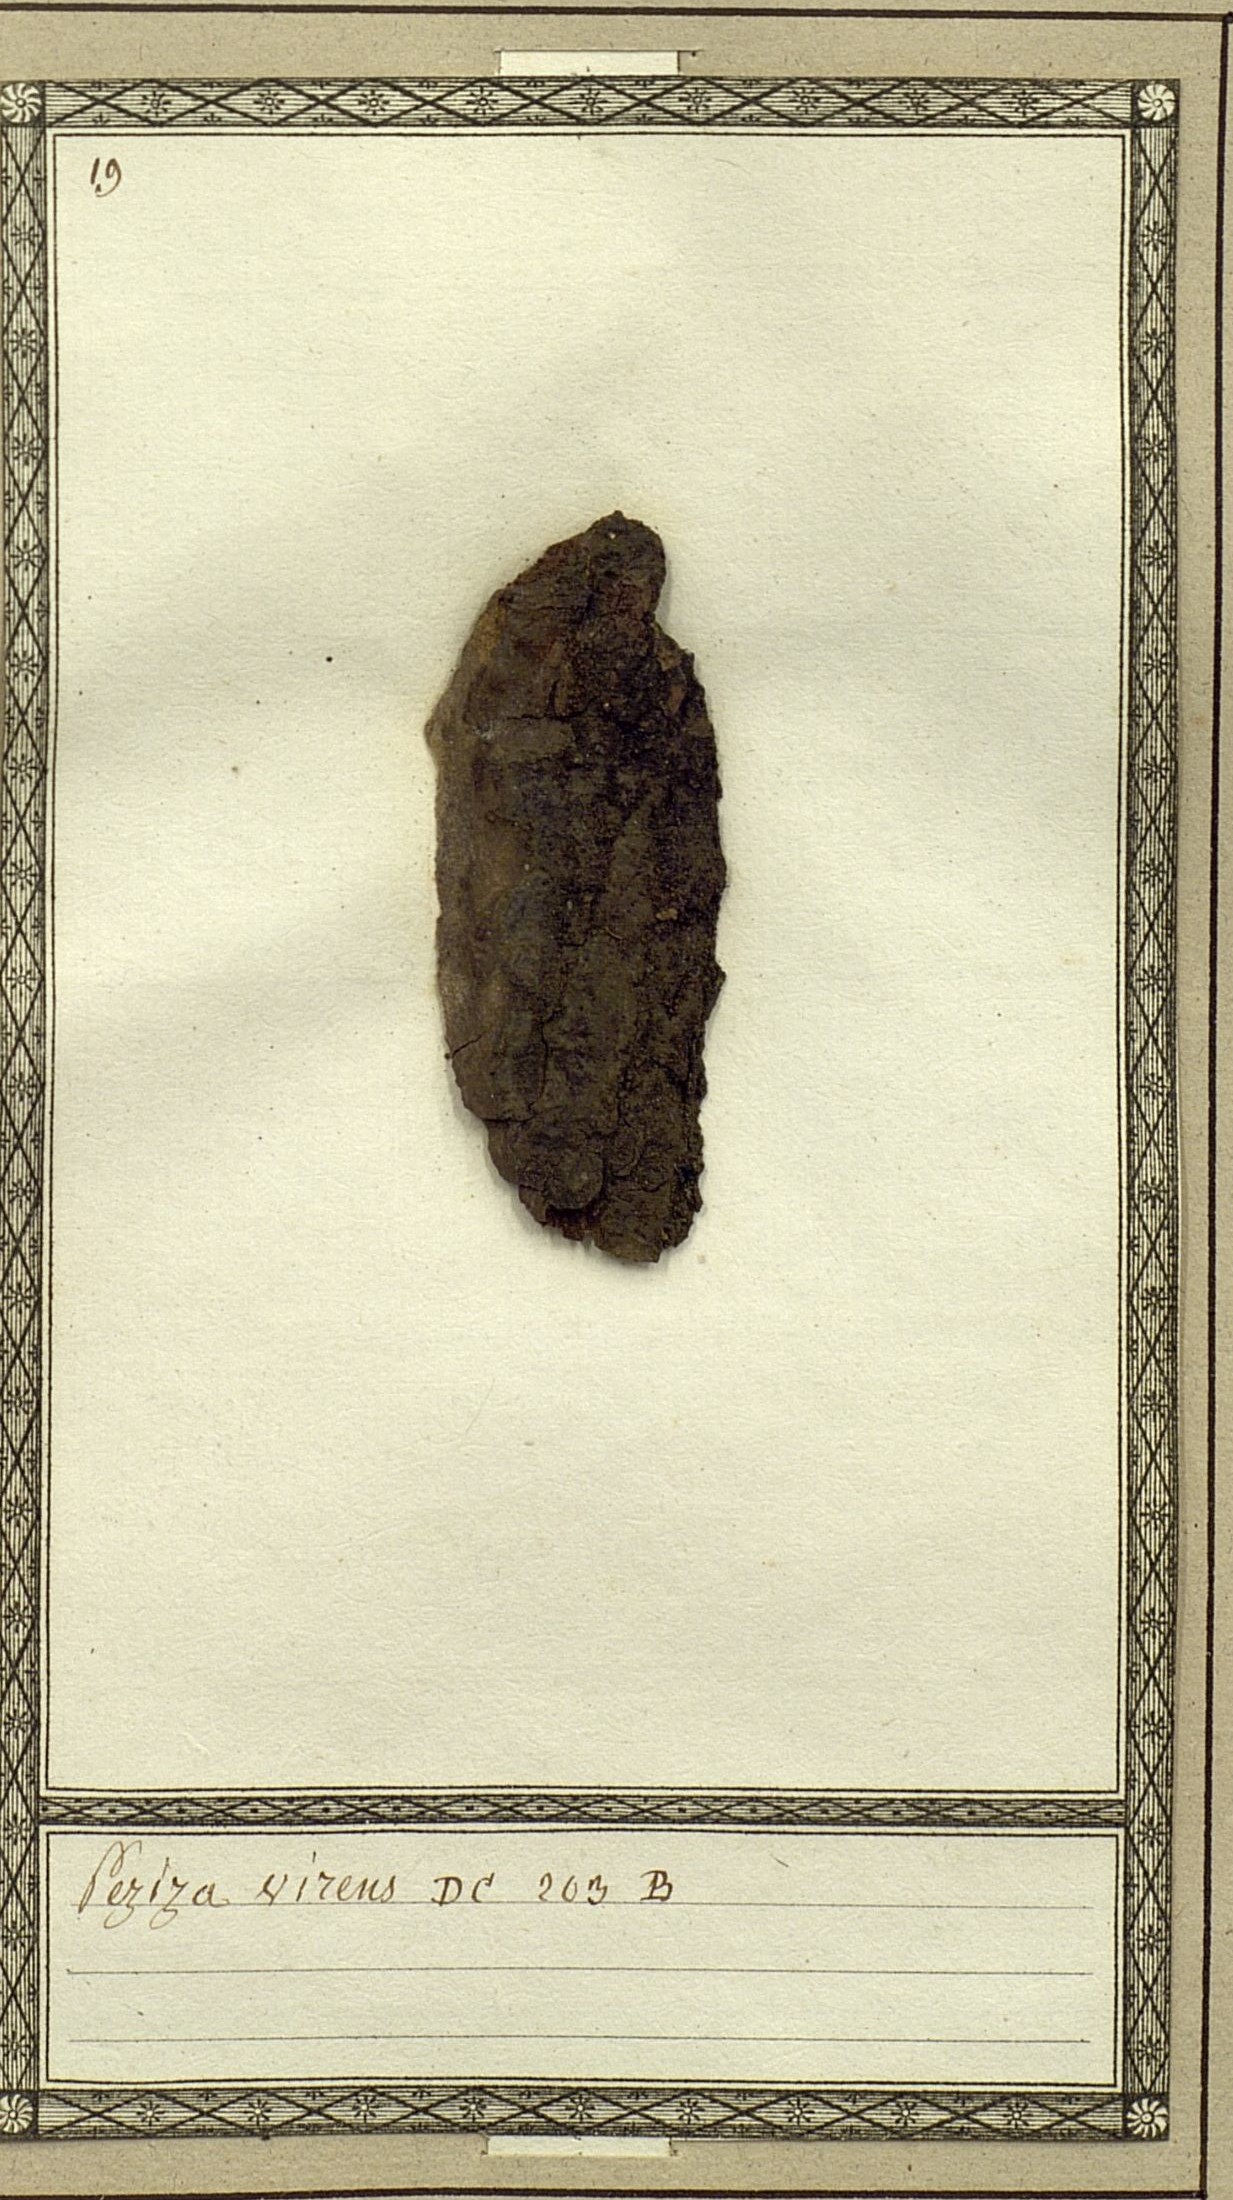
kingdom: Fungi
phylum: Ascomycota
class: Leotiomycetes
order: Helotiales
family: Pezizellaceae
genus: Pezizella
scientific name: Pezizella virens
